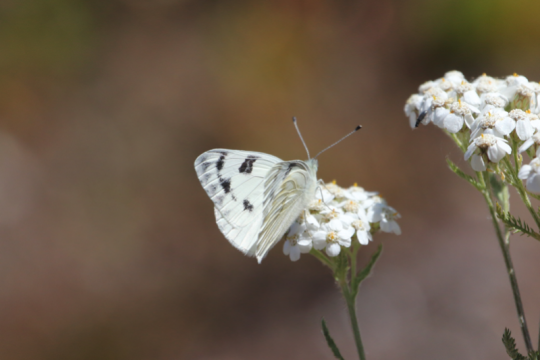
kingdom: Animalia
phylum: Arthropoda
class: Insecta
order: Lepidoptera
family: Pieridae
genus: Pontia
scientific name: Pontia occidentalis
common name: Western White
